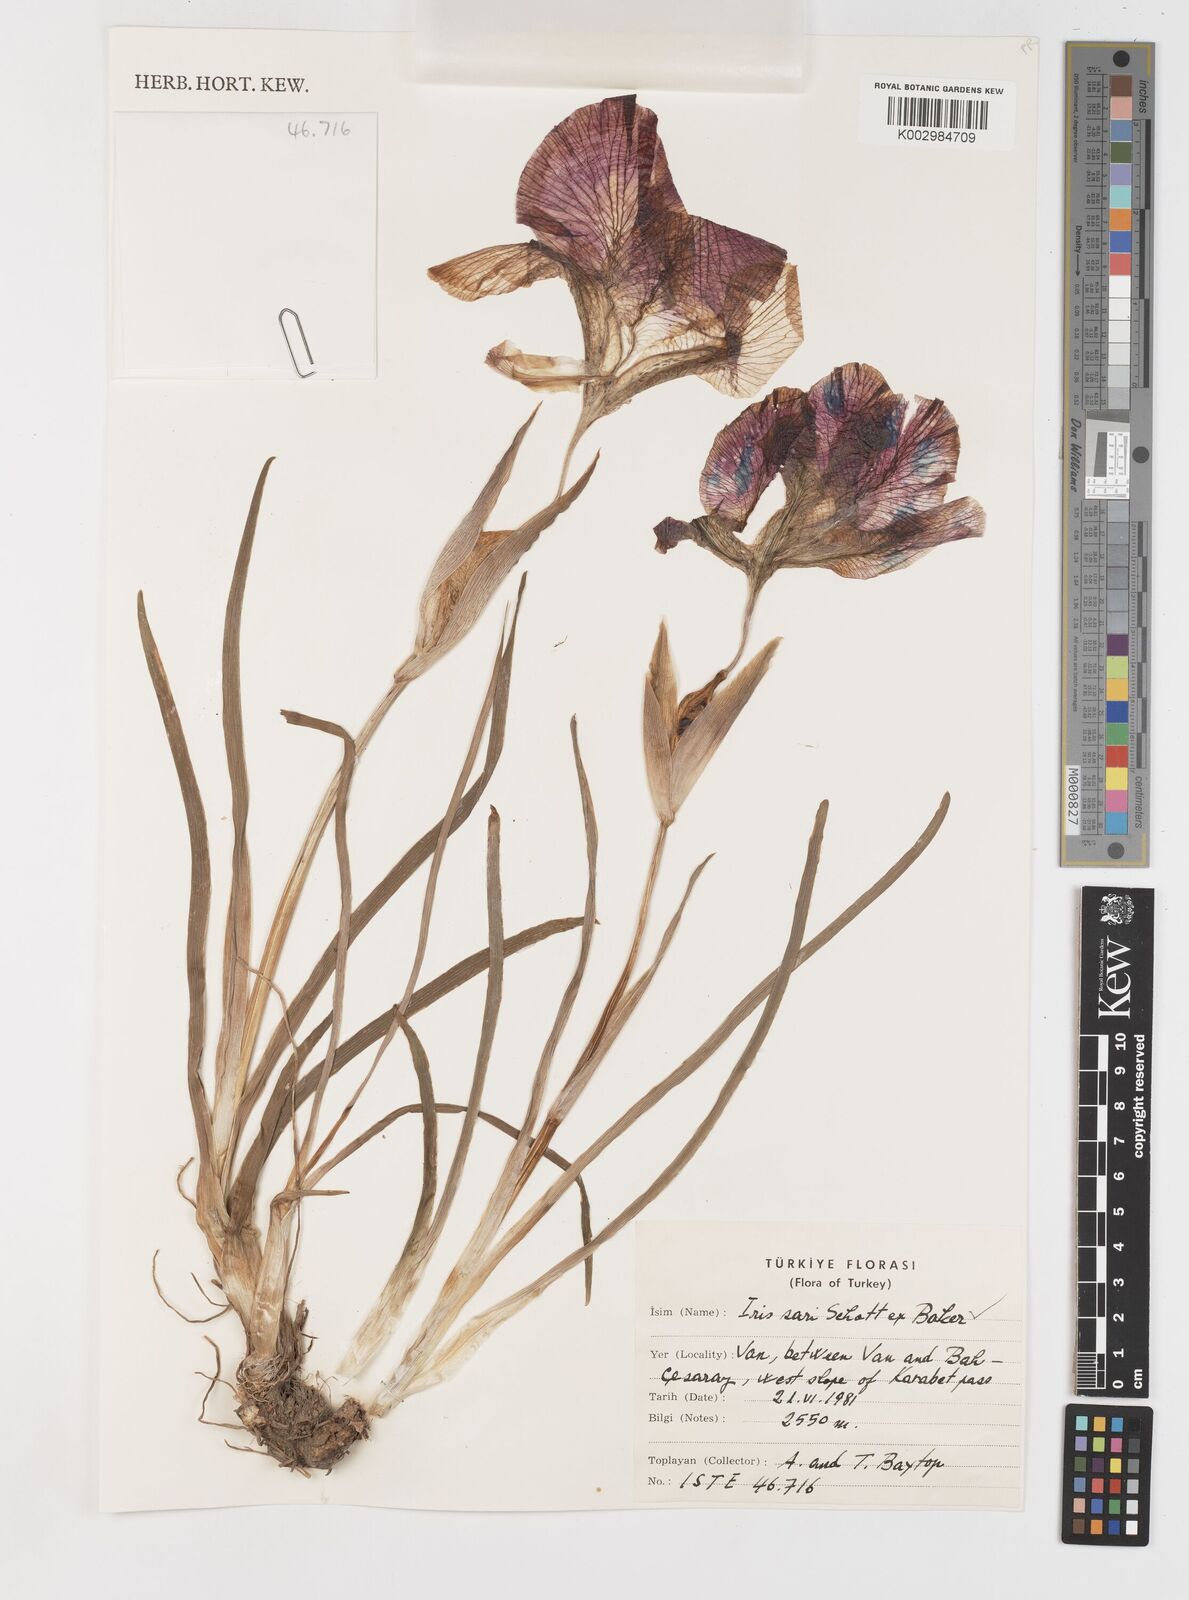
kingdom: Plantae
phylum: Tracheophyta
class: Liliopsida
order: Asparagales
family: Iridaceae
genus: Iris
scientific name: Iris sari
